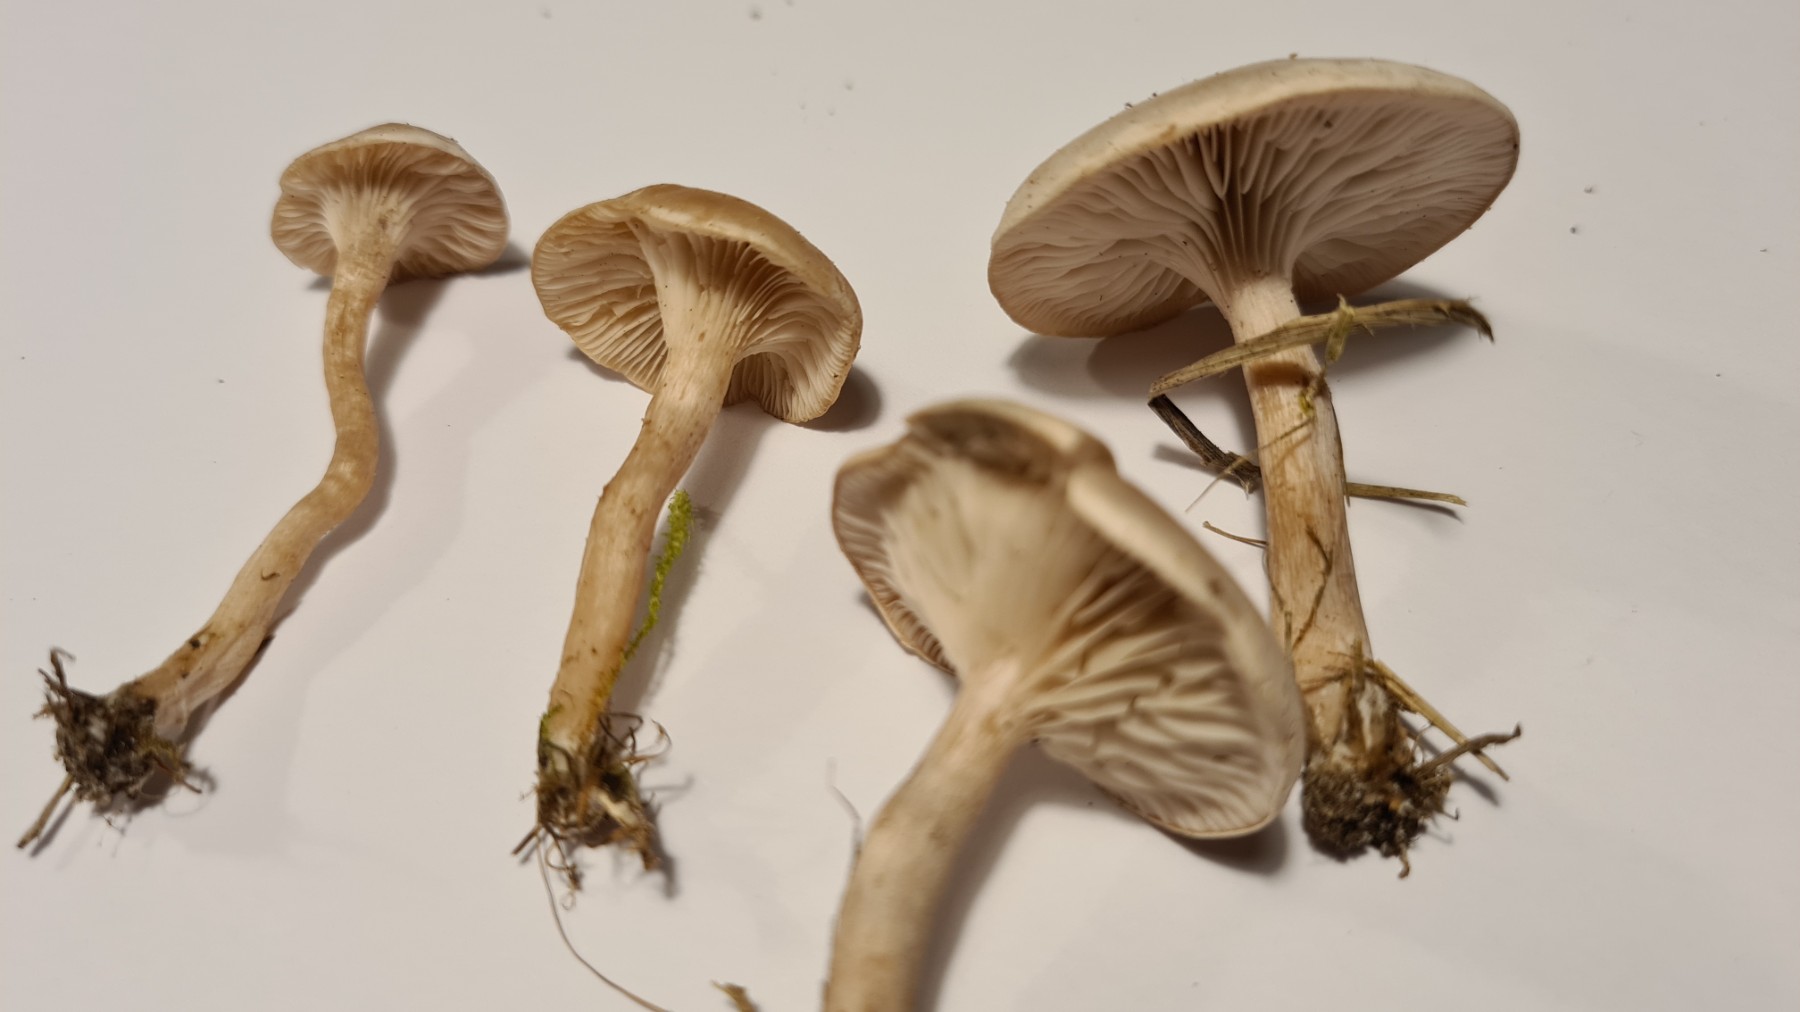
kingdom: Fungi
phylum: Basidiomycota
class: Agaricomycetes
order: Agaricales
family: Tricholomataceae
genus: Clitocybe
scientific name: Clitocybe rivulosa
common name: eng-tragthat
